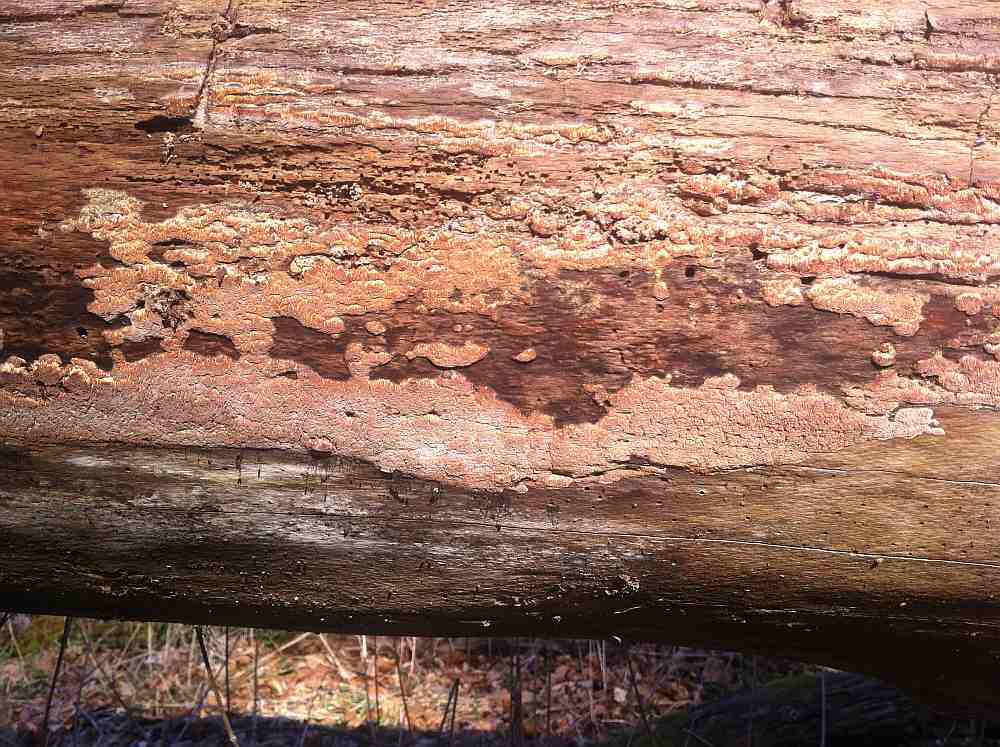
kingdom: Fungi
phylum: Basidiomycota
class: Agaricomycetes
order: Polyporales
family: Meruliaceae
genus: Mycoacia
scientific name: Mycoacia gilvescens
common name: rosa pastelporesvamp
